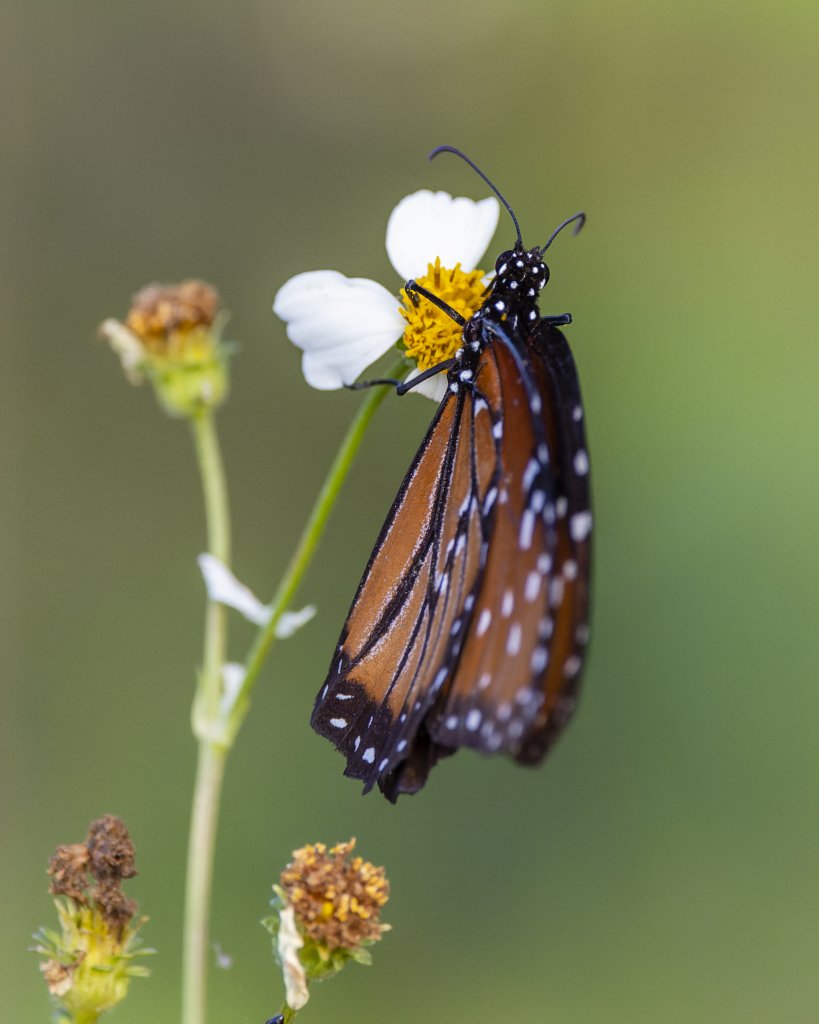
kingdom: Animalia
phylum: Arthropoda
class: Insecta
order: Lepidoptera
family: Nymphalidae
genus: Danaus
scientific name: Danaus gilippus
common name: Queen
